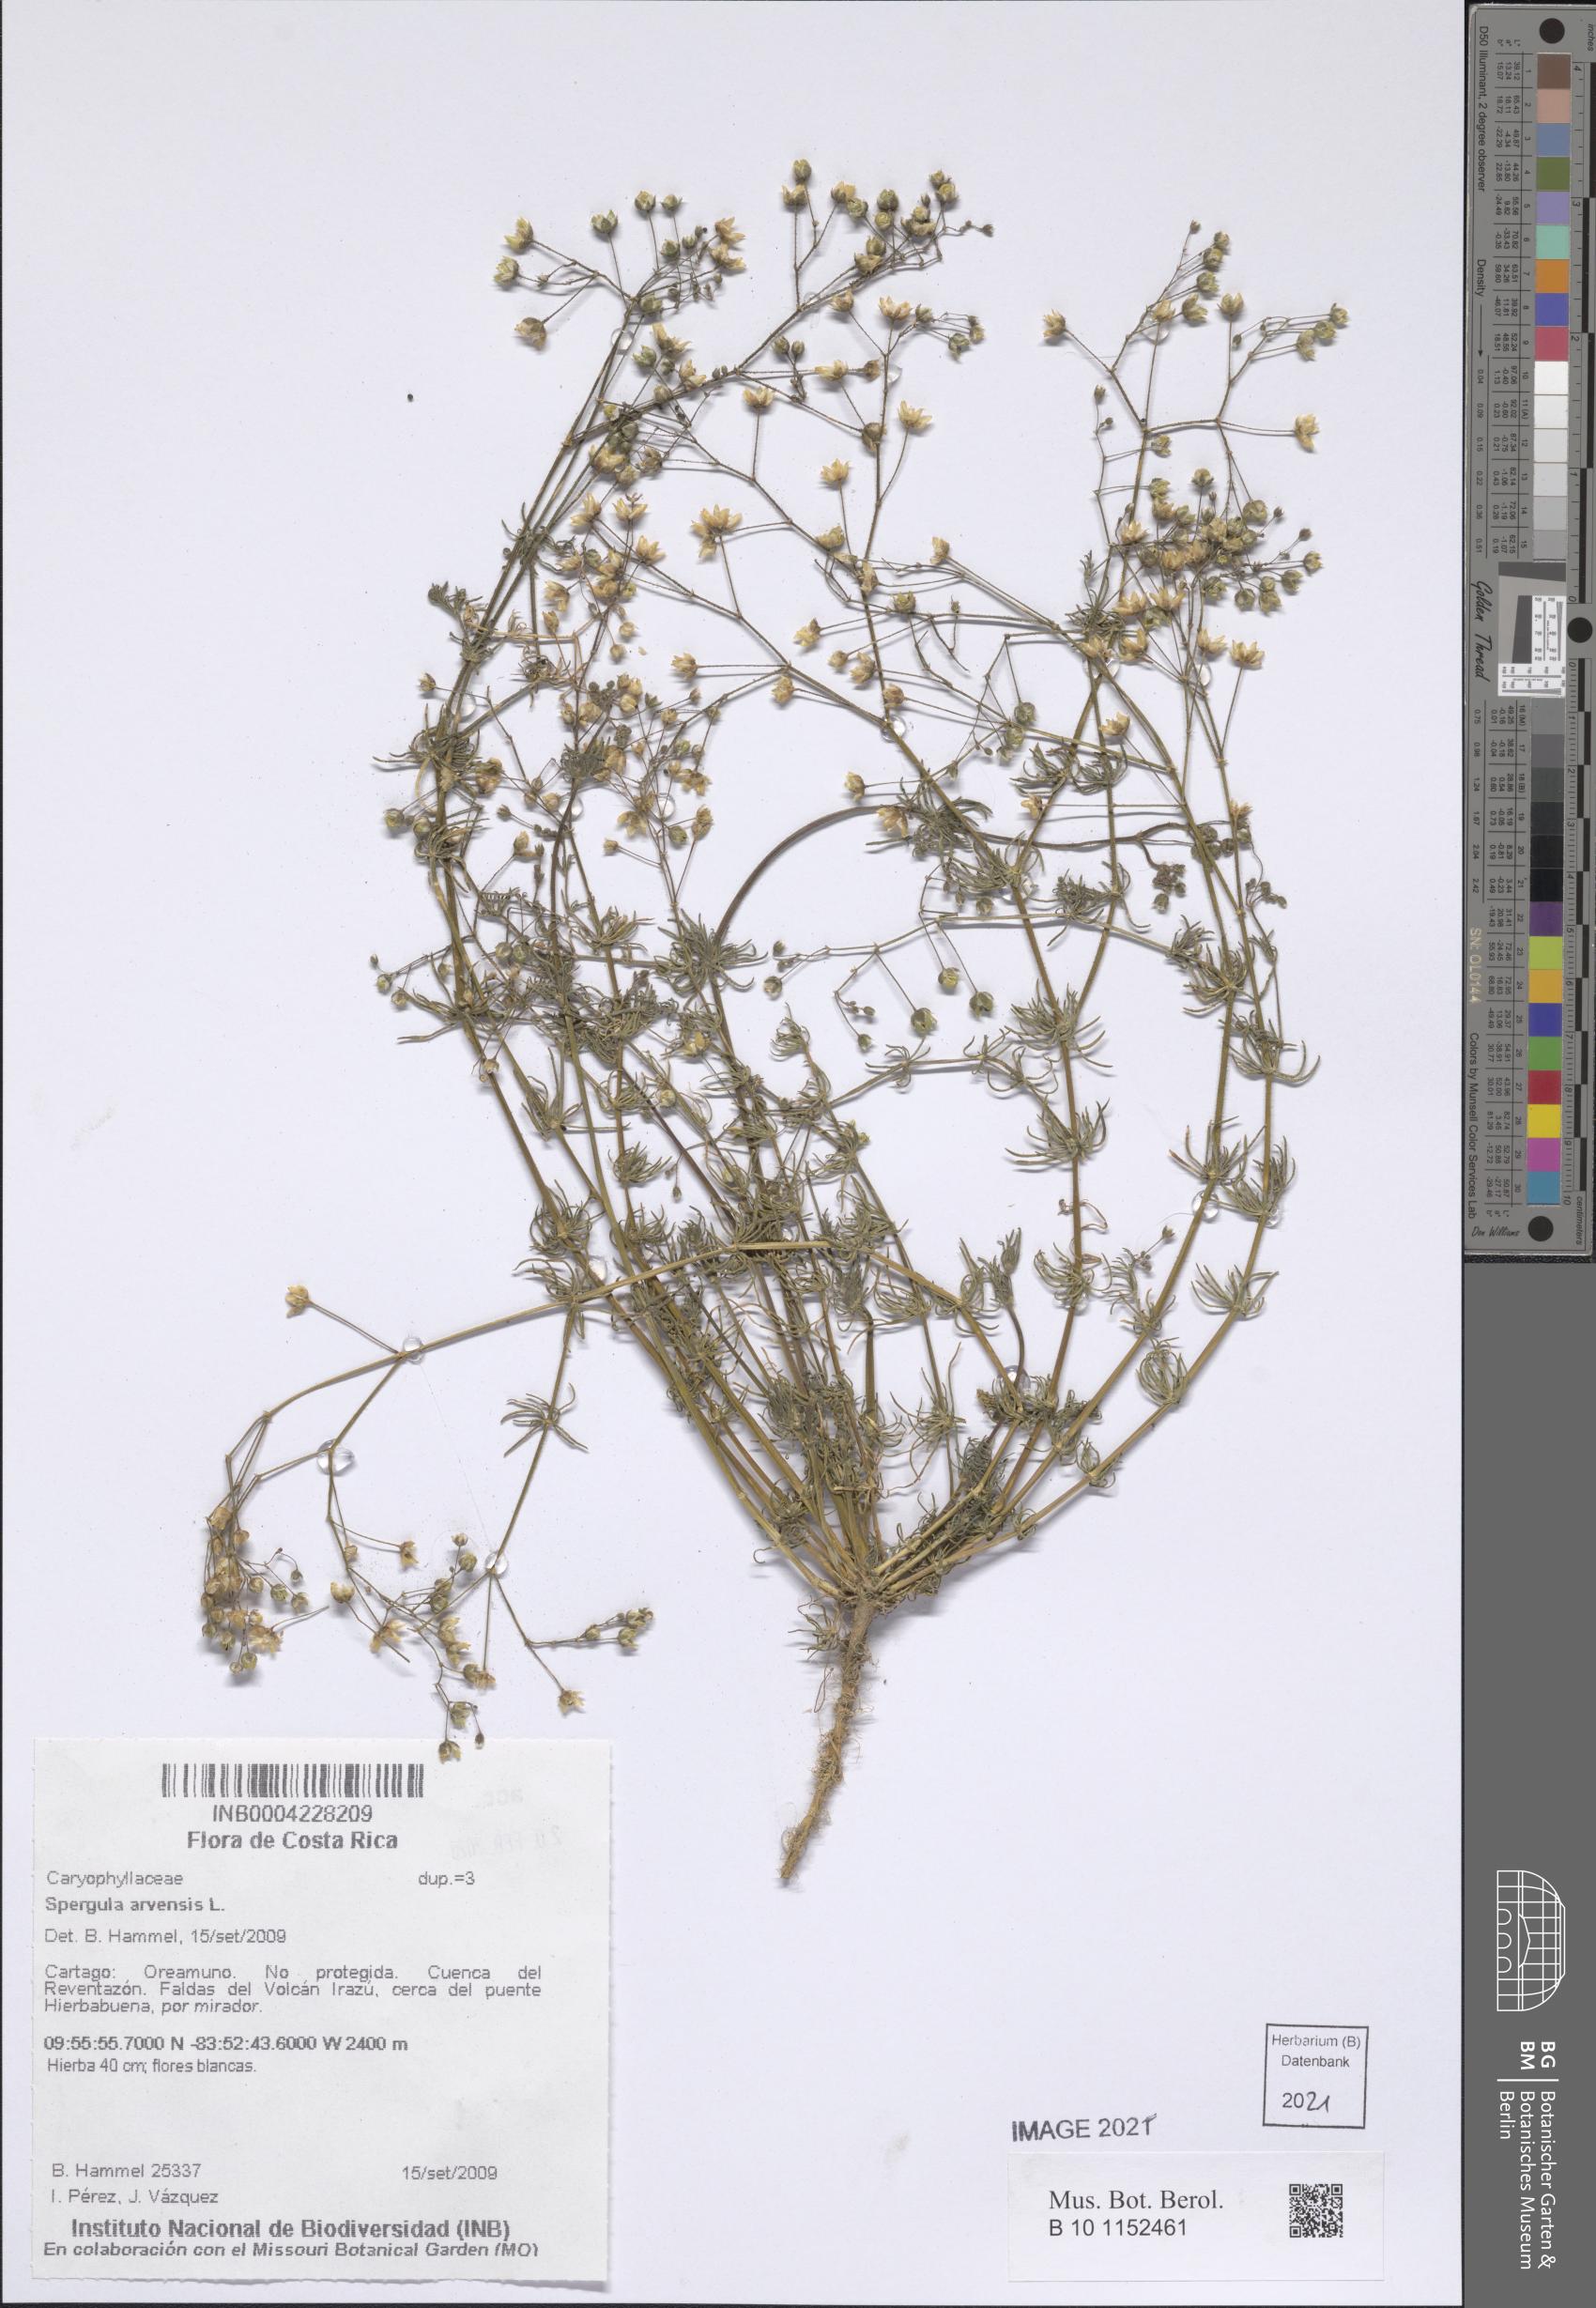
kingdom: Plantae
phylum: Tracheophyta
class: Magnoliopsida
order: Caryophyllales
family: Caryophyllaceae
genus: Spergula
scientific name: Spergula arvensis
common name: Corn spurrey
